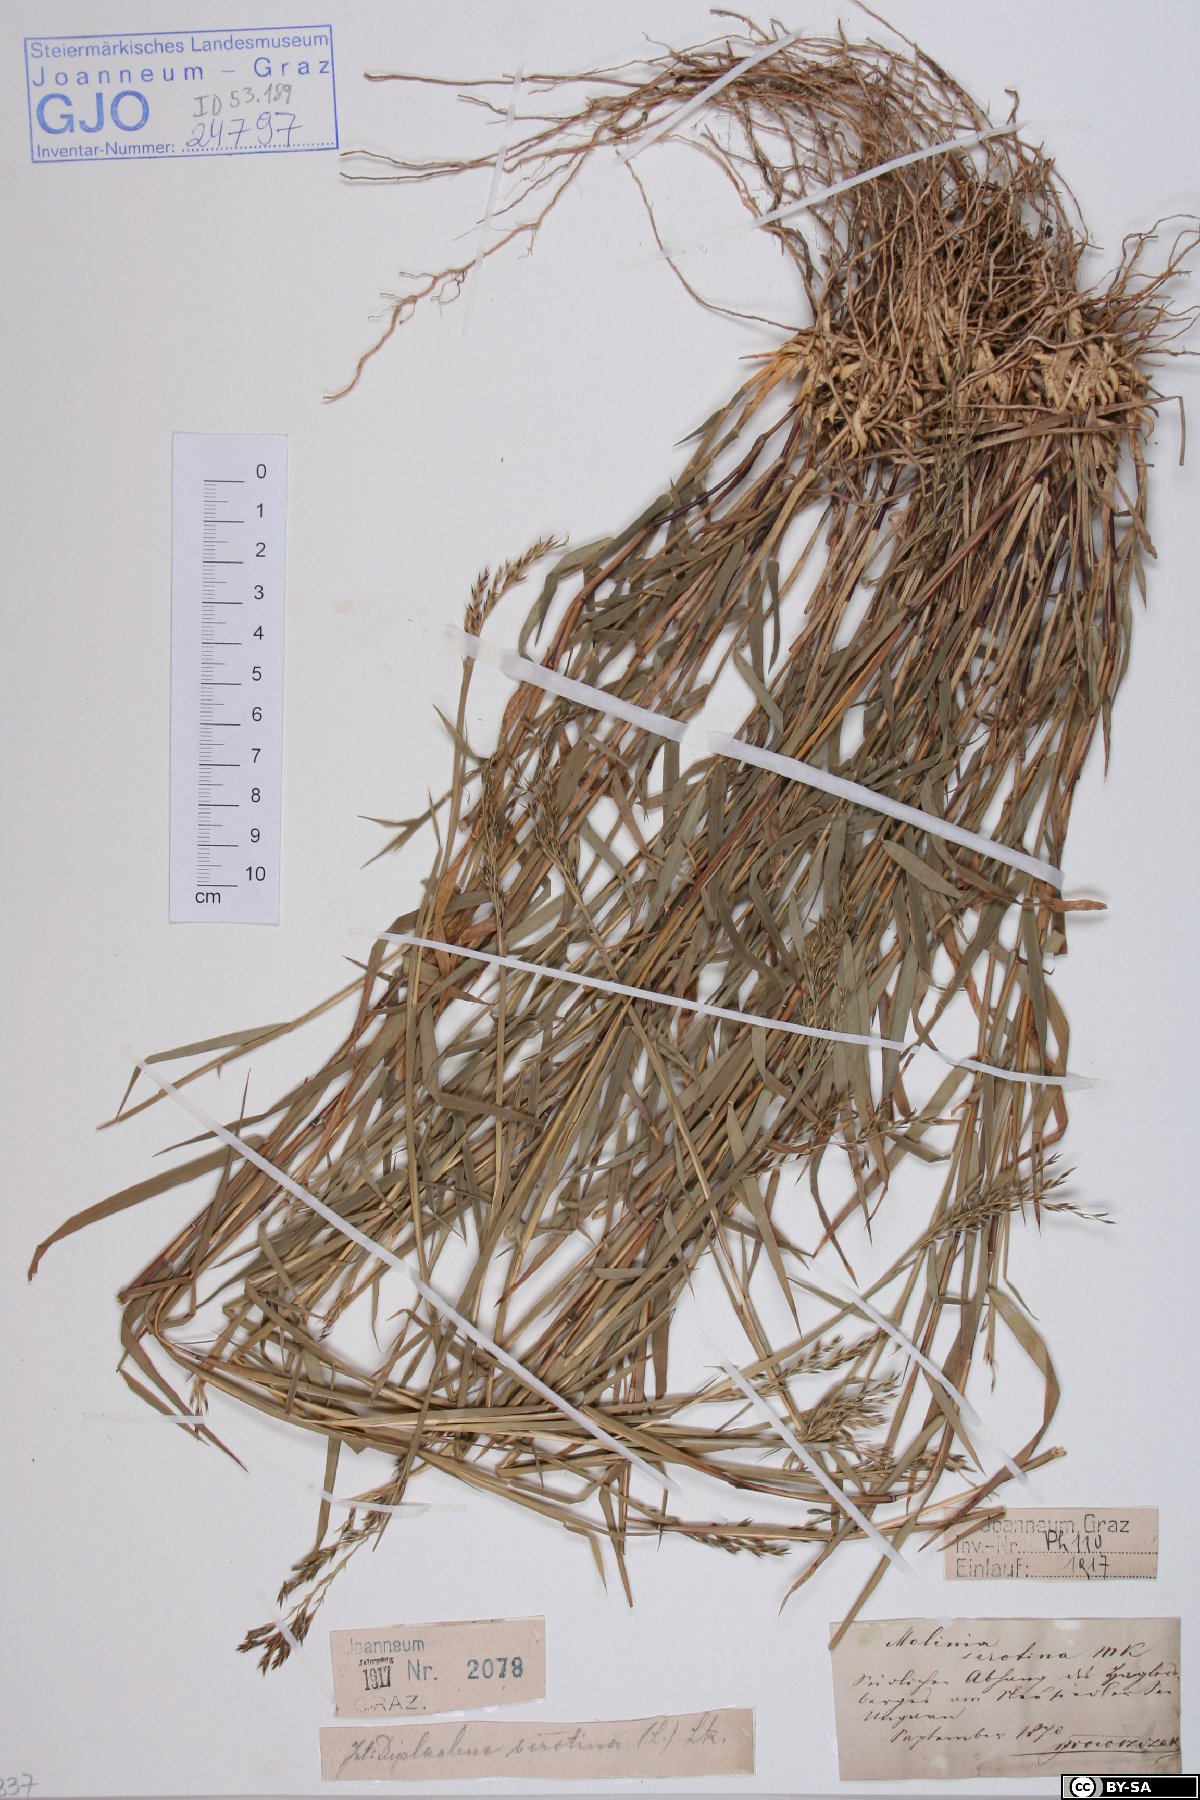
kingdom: Plantae
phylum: Tracheophyta
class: Liliopsida
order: Poales
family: Poaceae
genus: Cleistogenes
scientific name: Cleistogenes serotina
